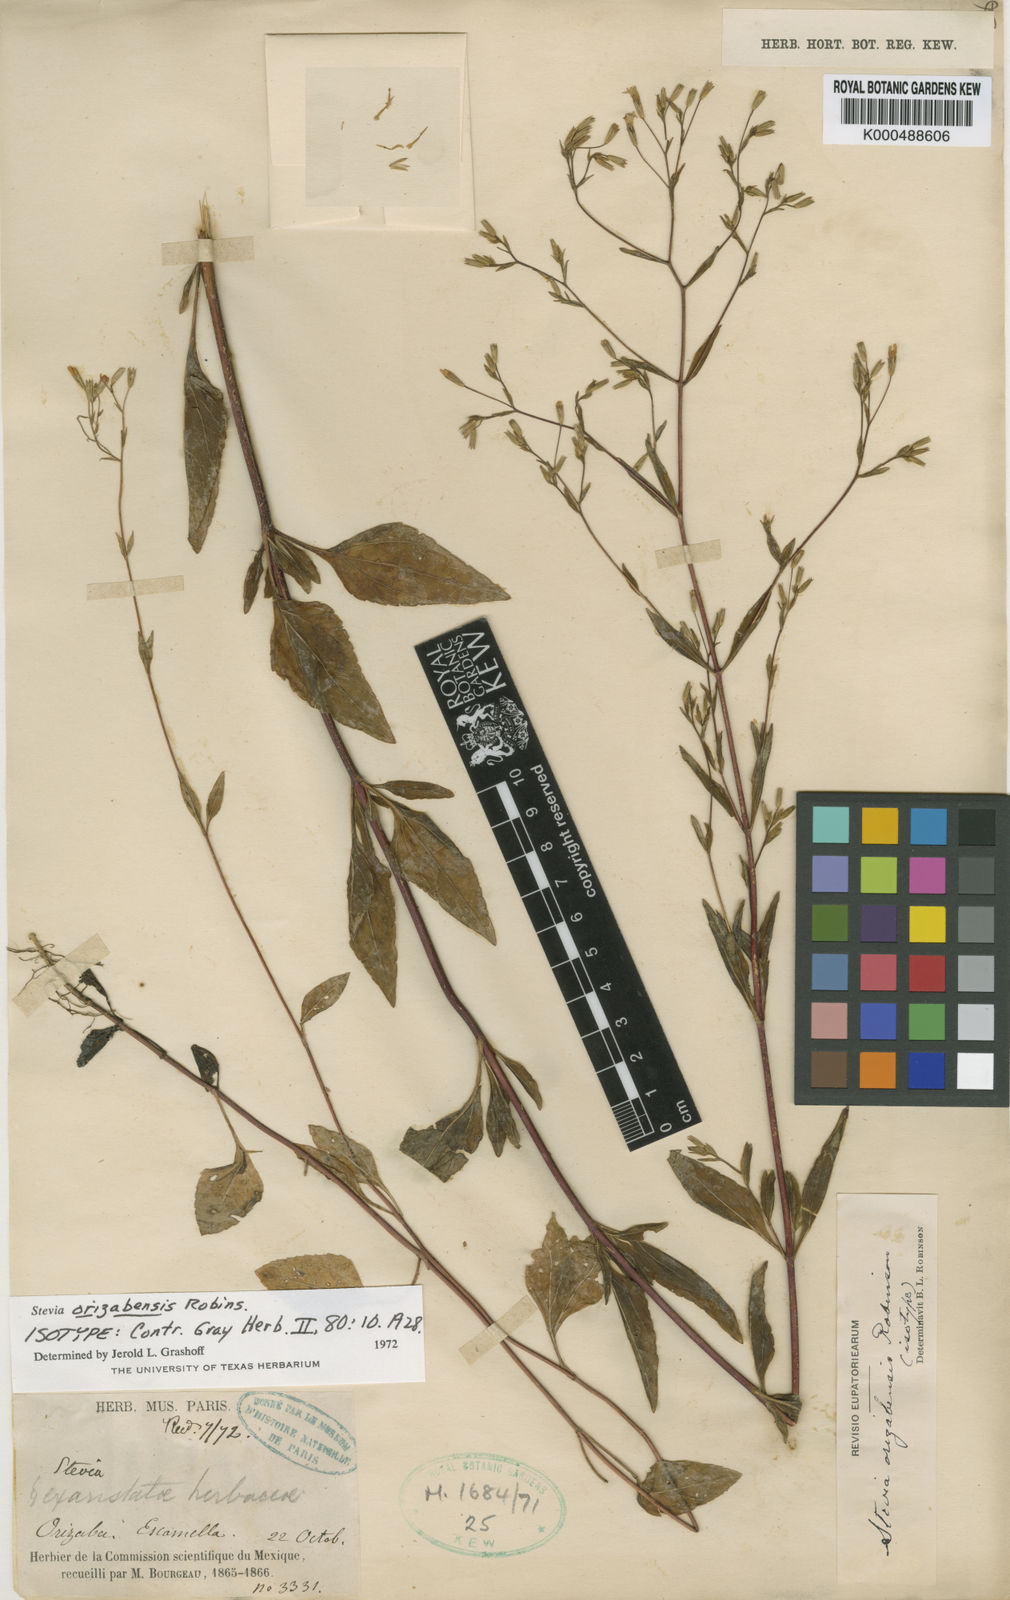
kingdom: Plantae
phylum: Tracheophyta
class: Magnoliopsida
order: Asterales
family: Asteraceae
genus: Stevia
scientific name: Stevia orizabensis
